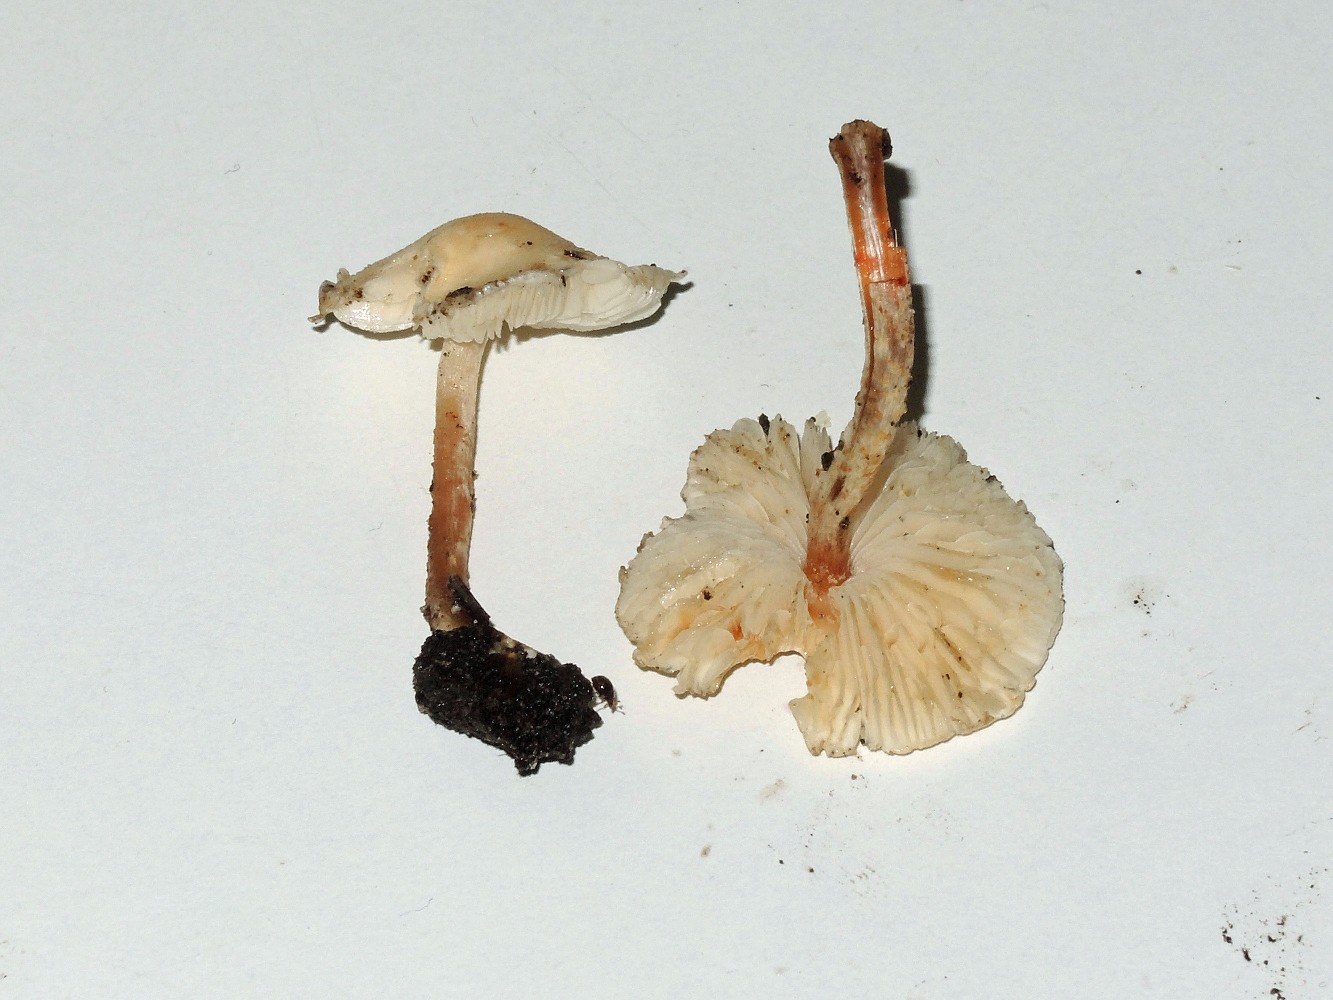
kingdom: Fungi
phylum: Basidiomycota
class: Agaricomycetes
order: Agaricales
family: Agaricaceae
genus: Cystolepiota
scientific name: Cystolepiota seminuda
